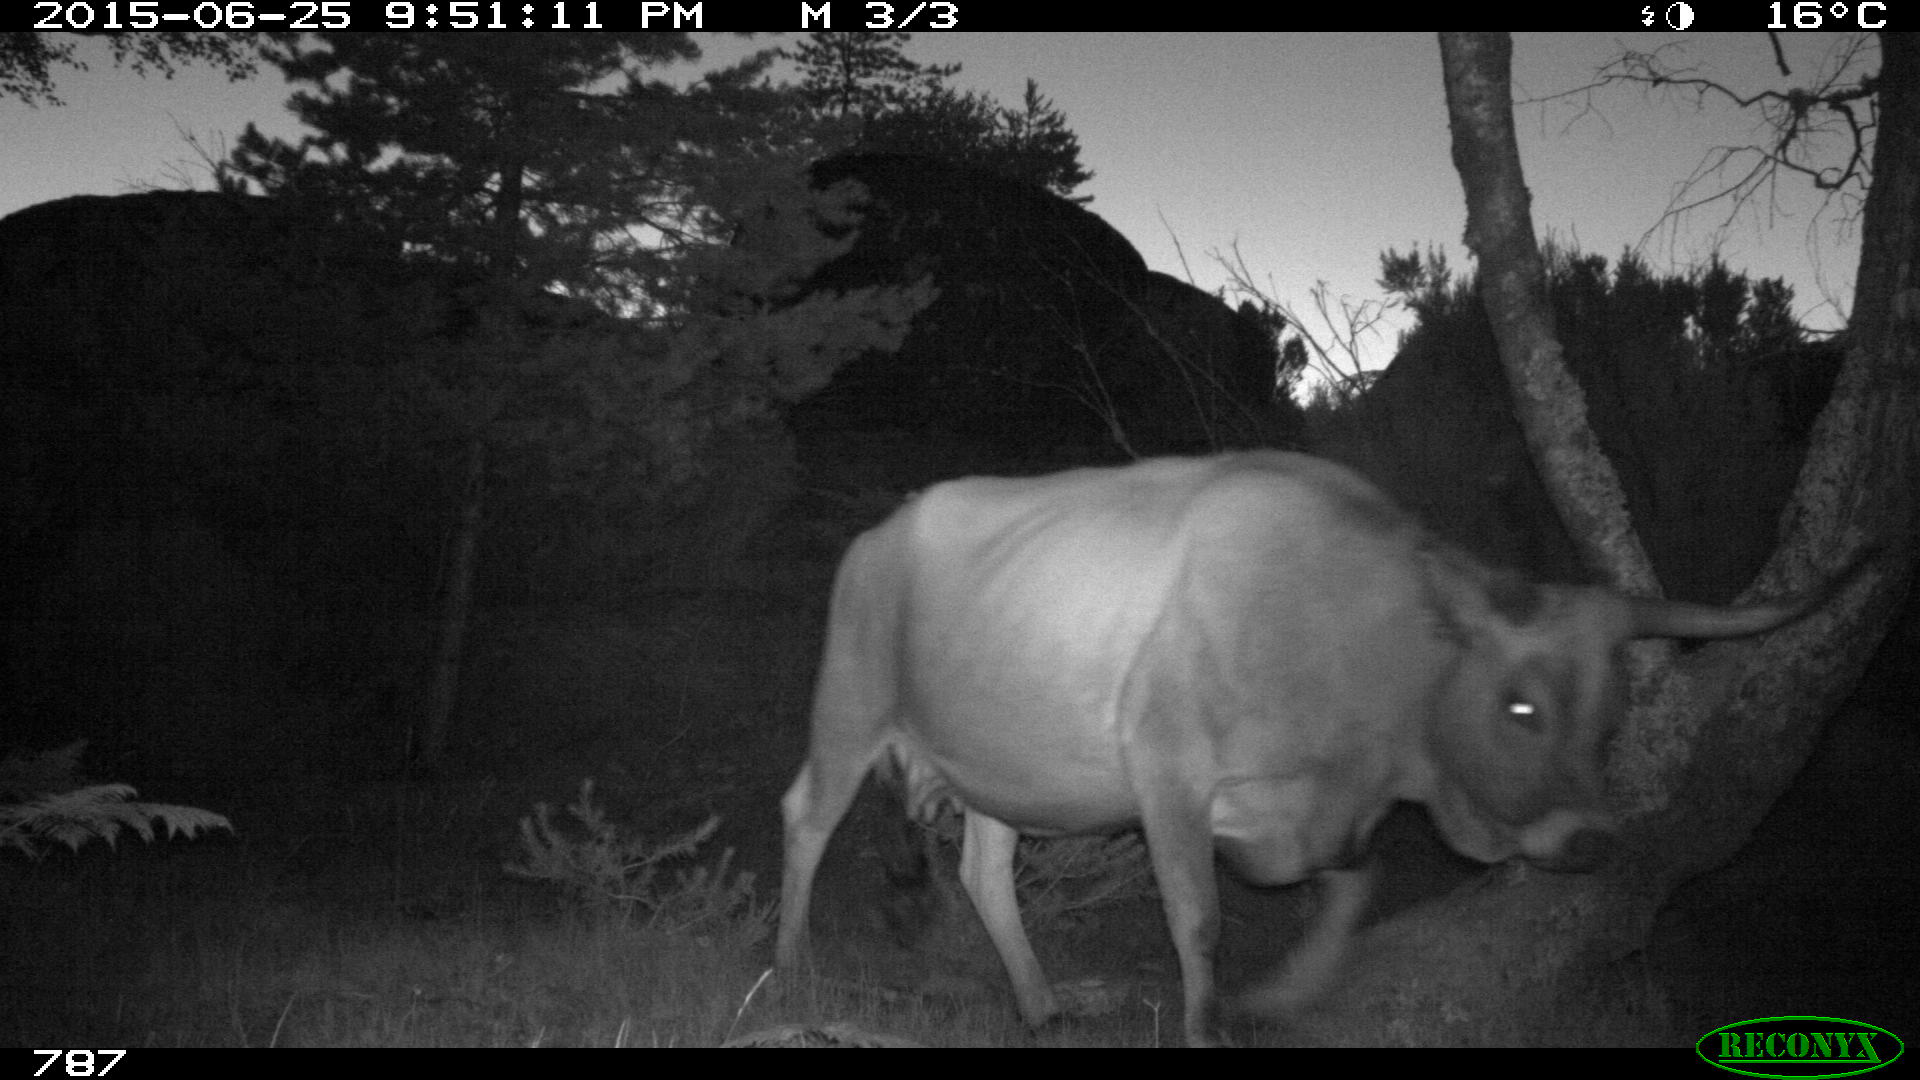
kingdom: Animalia
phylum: Chordata
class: Mammalia
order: Artiodactyla
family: Bovidae
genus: Bos
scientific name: Bos taurus
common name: Domesticated cattle
